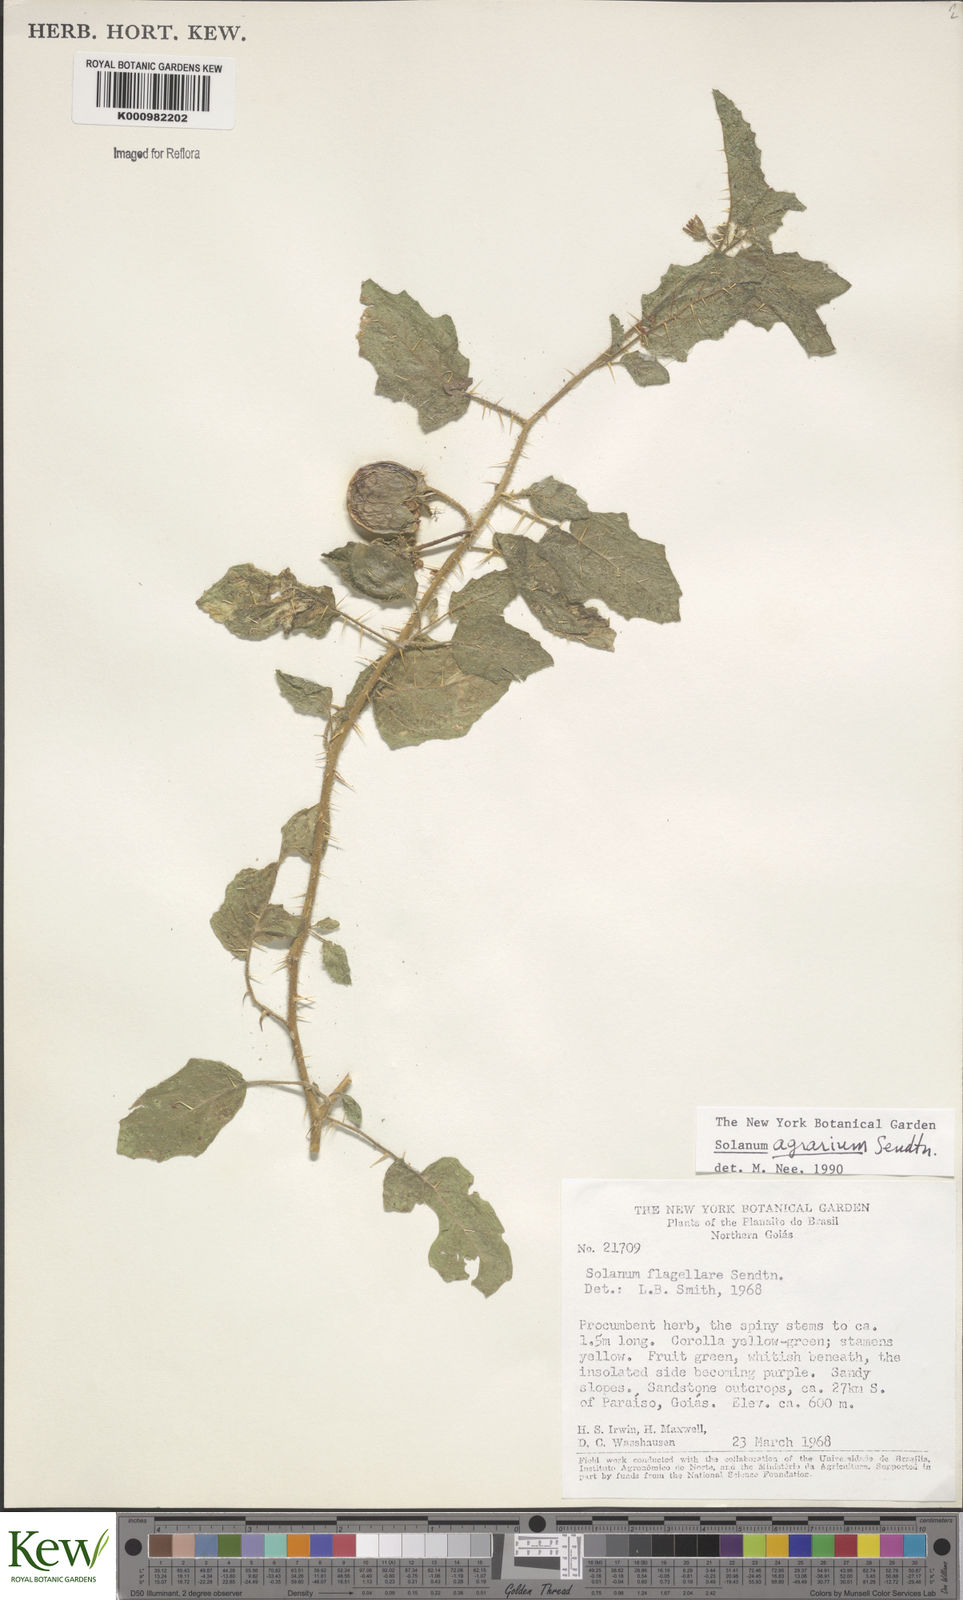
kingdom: Plantae
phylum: Tracheophyta
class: Magnoliopsida
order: Solanales
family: Solanaceae
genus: Solanum
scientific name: Solanum agrarium
